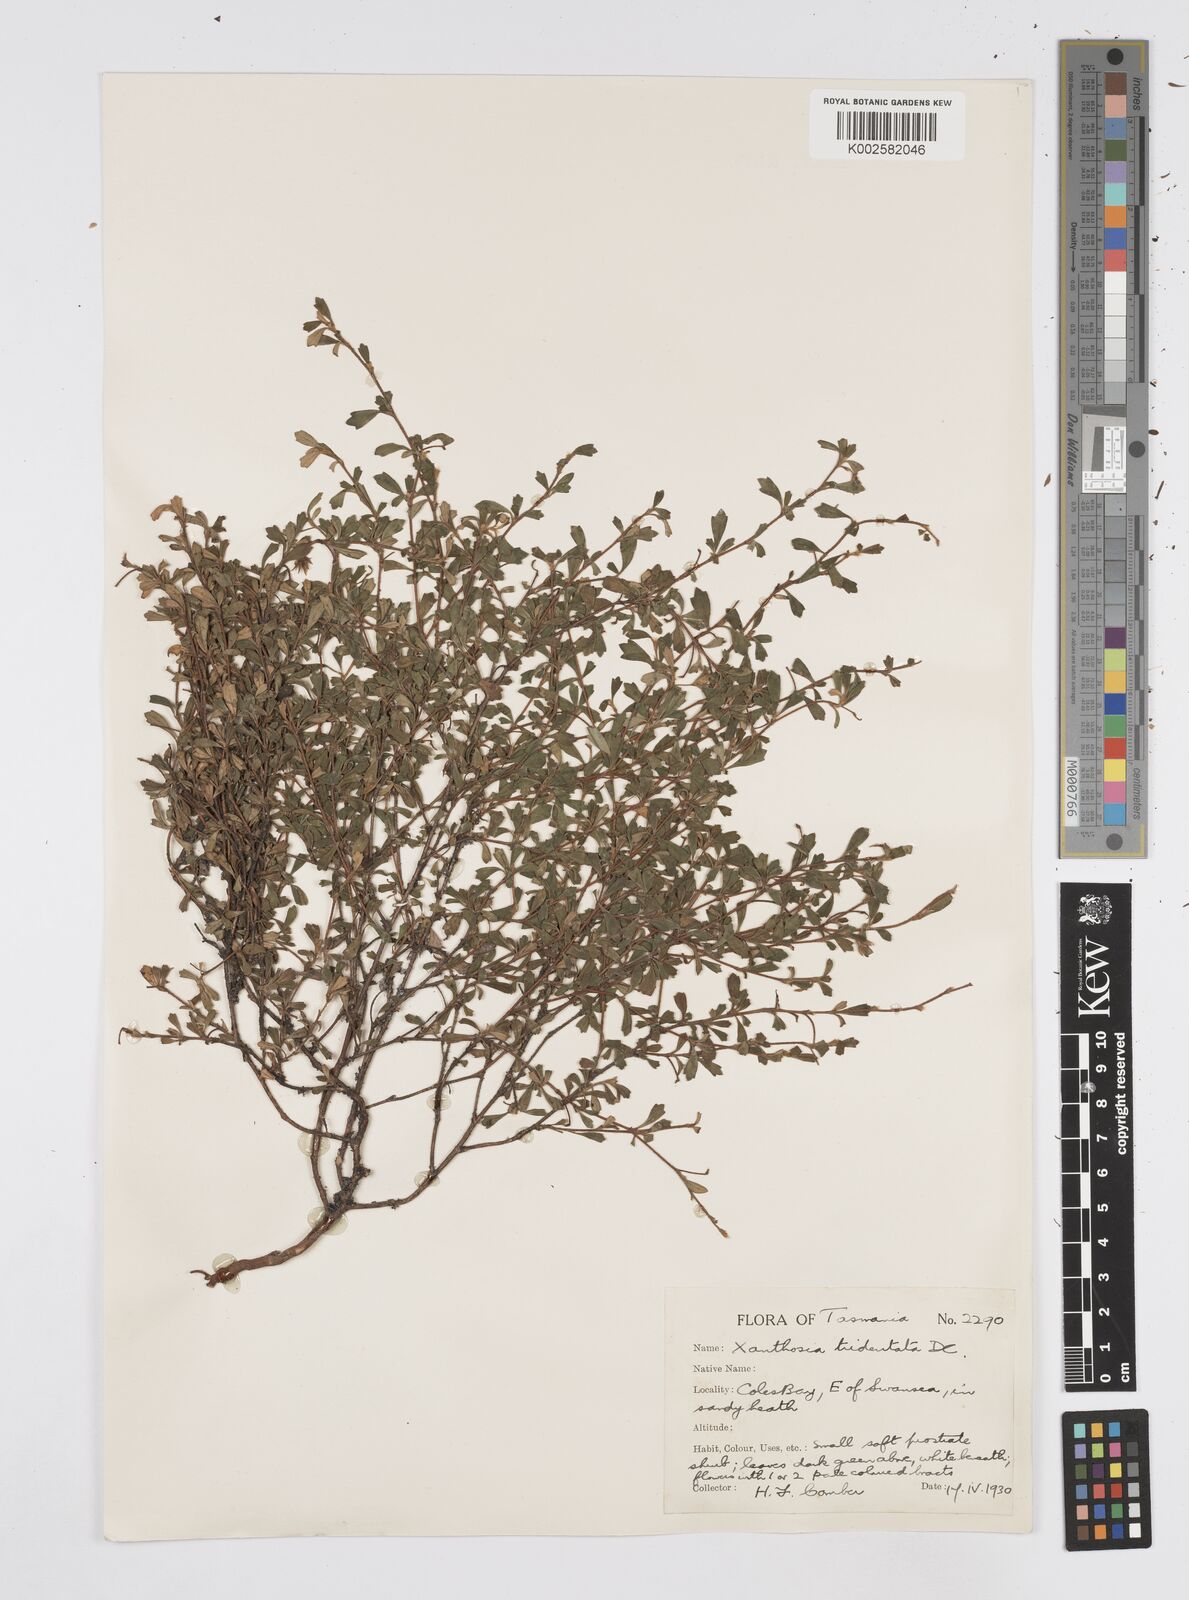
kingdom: Plantae
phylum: Tracheophyta
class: Magnoliopsida
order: Apiales
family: Apiaceae
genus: Xanthosia
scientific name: Xanthosia tridentata
